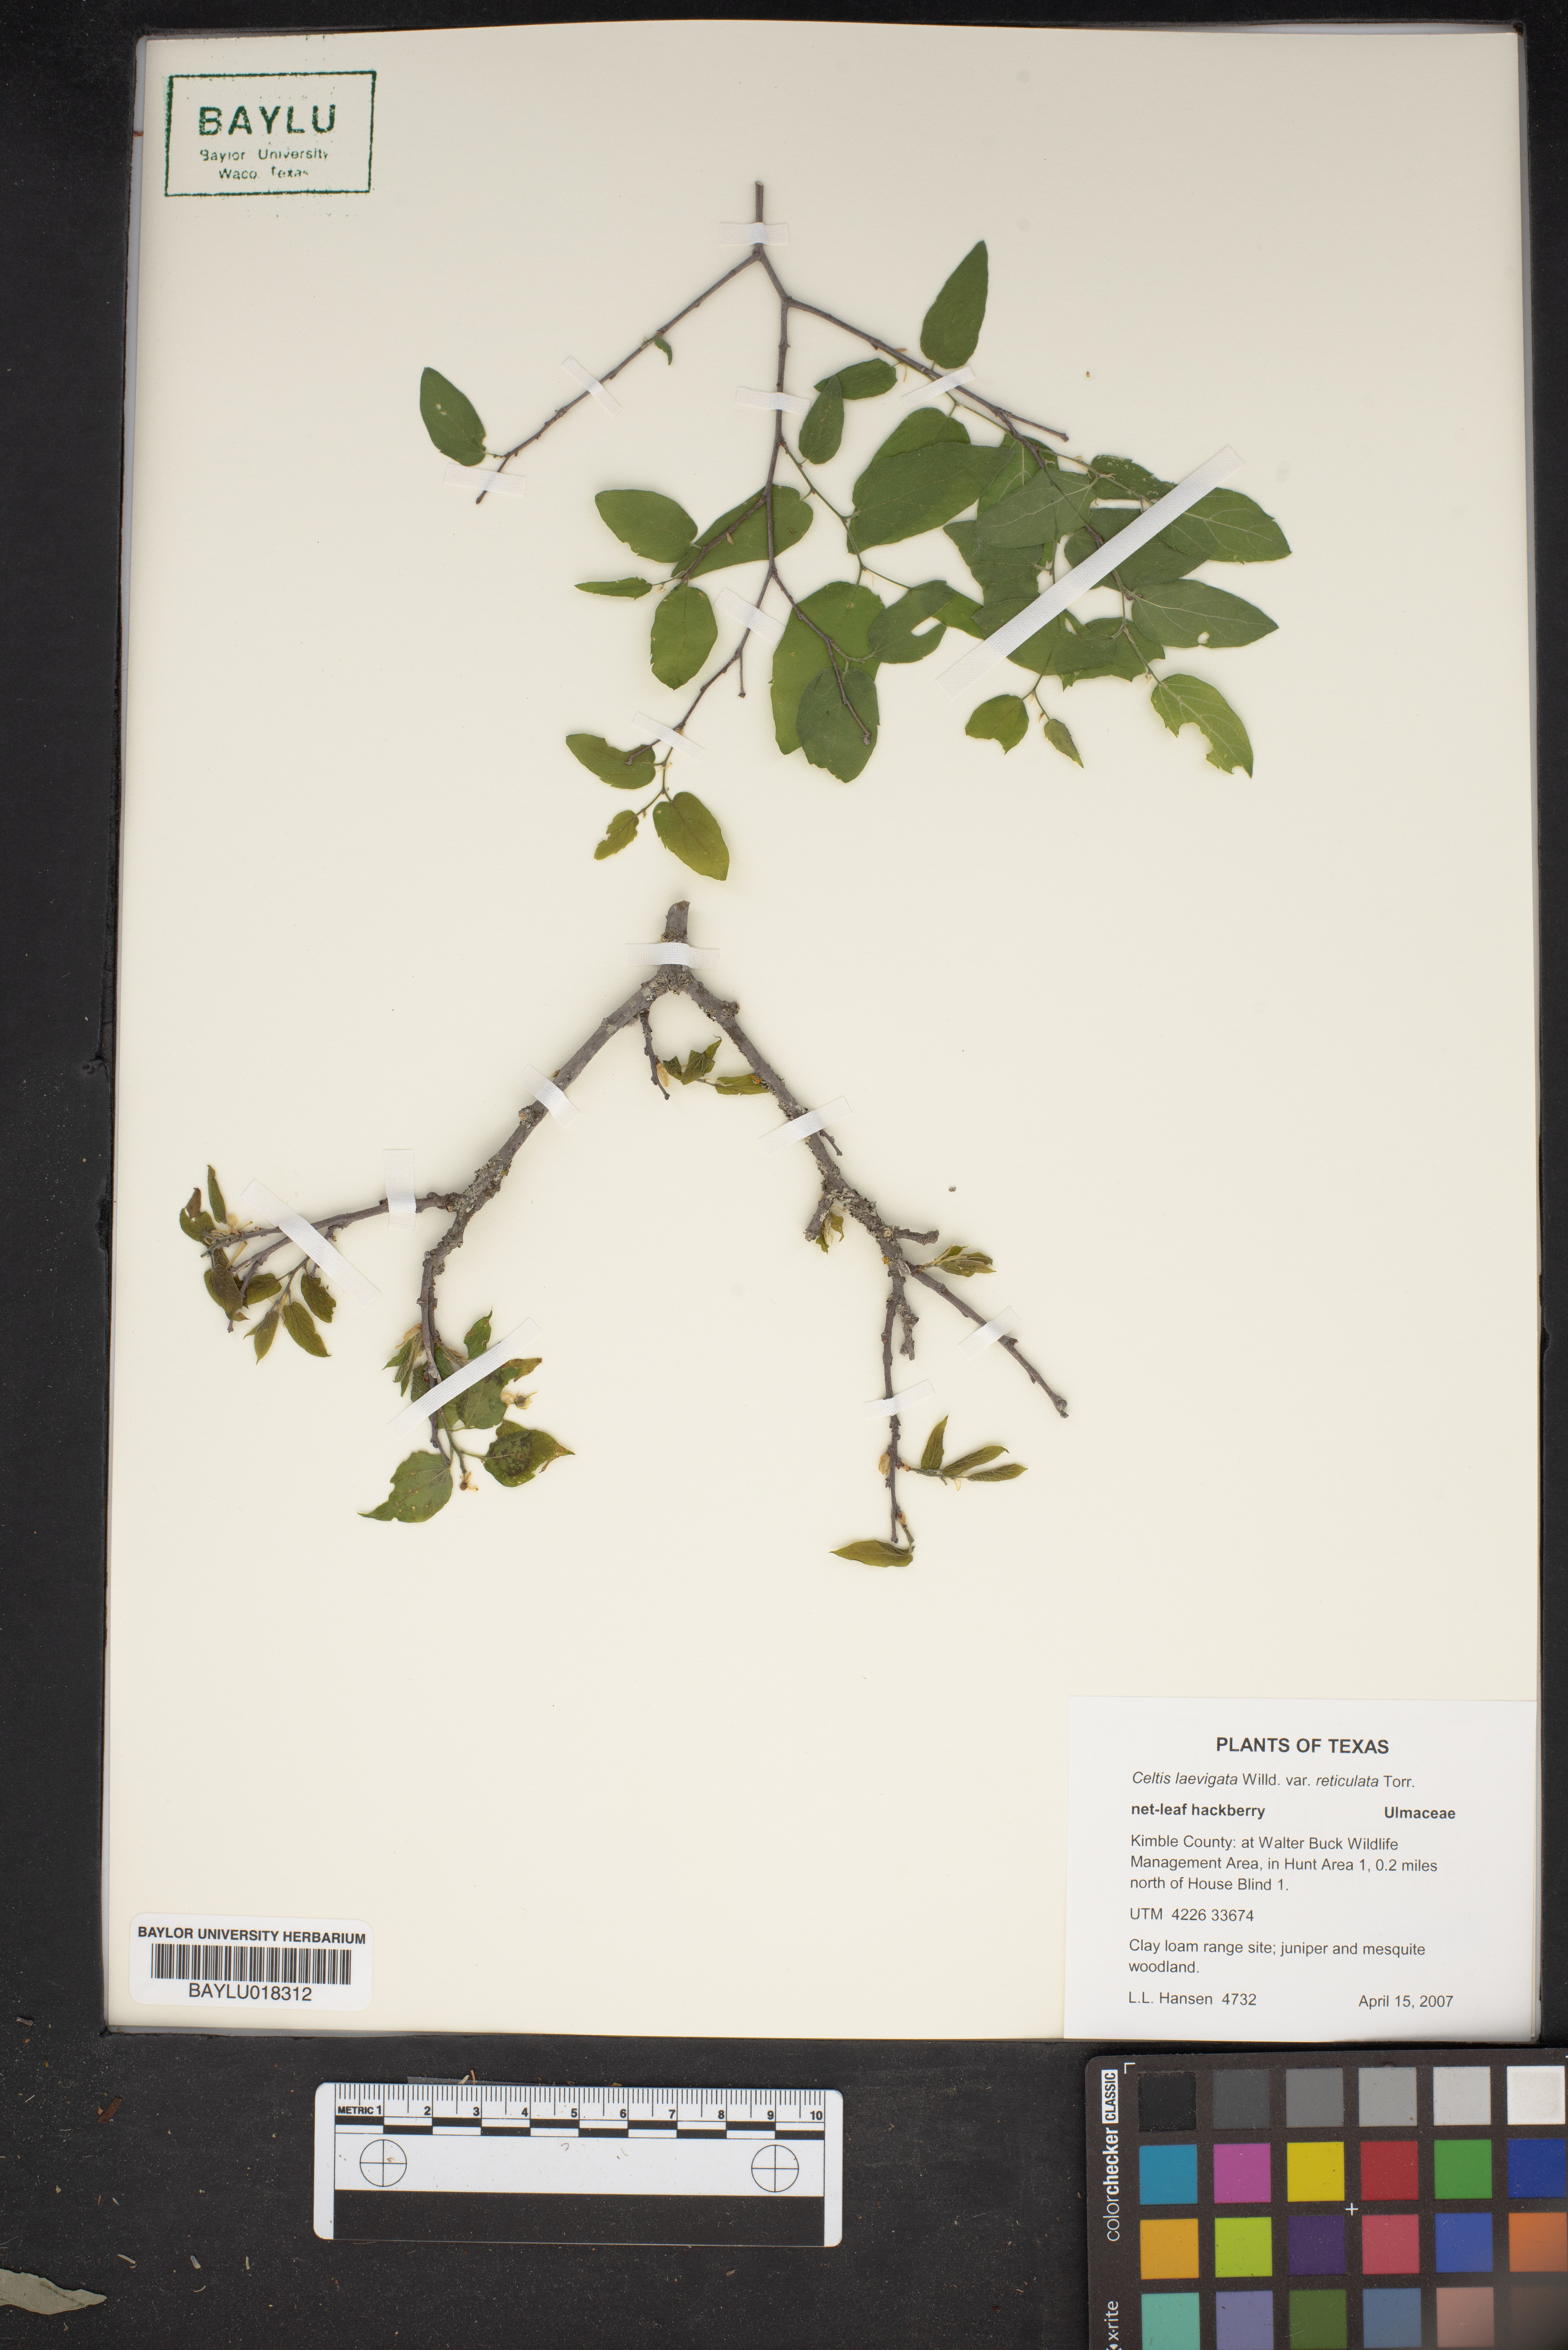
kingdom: Plantae
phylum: Tracheophyta
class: Magnoliopsida
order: Rosales
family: Cannabaceae
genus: Celtis
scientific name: Celtis reticulata
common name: Netleaf hackberry
